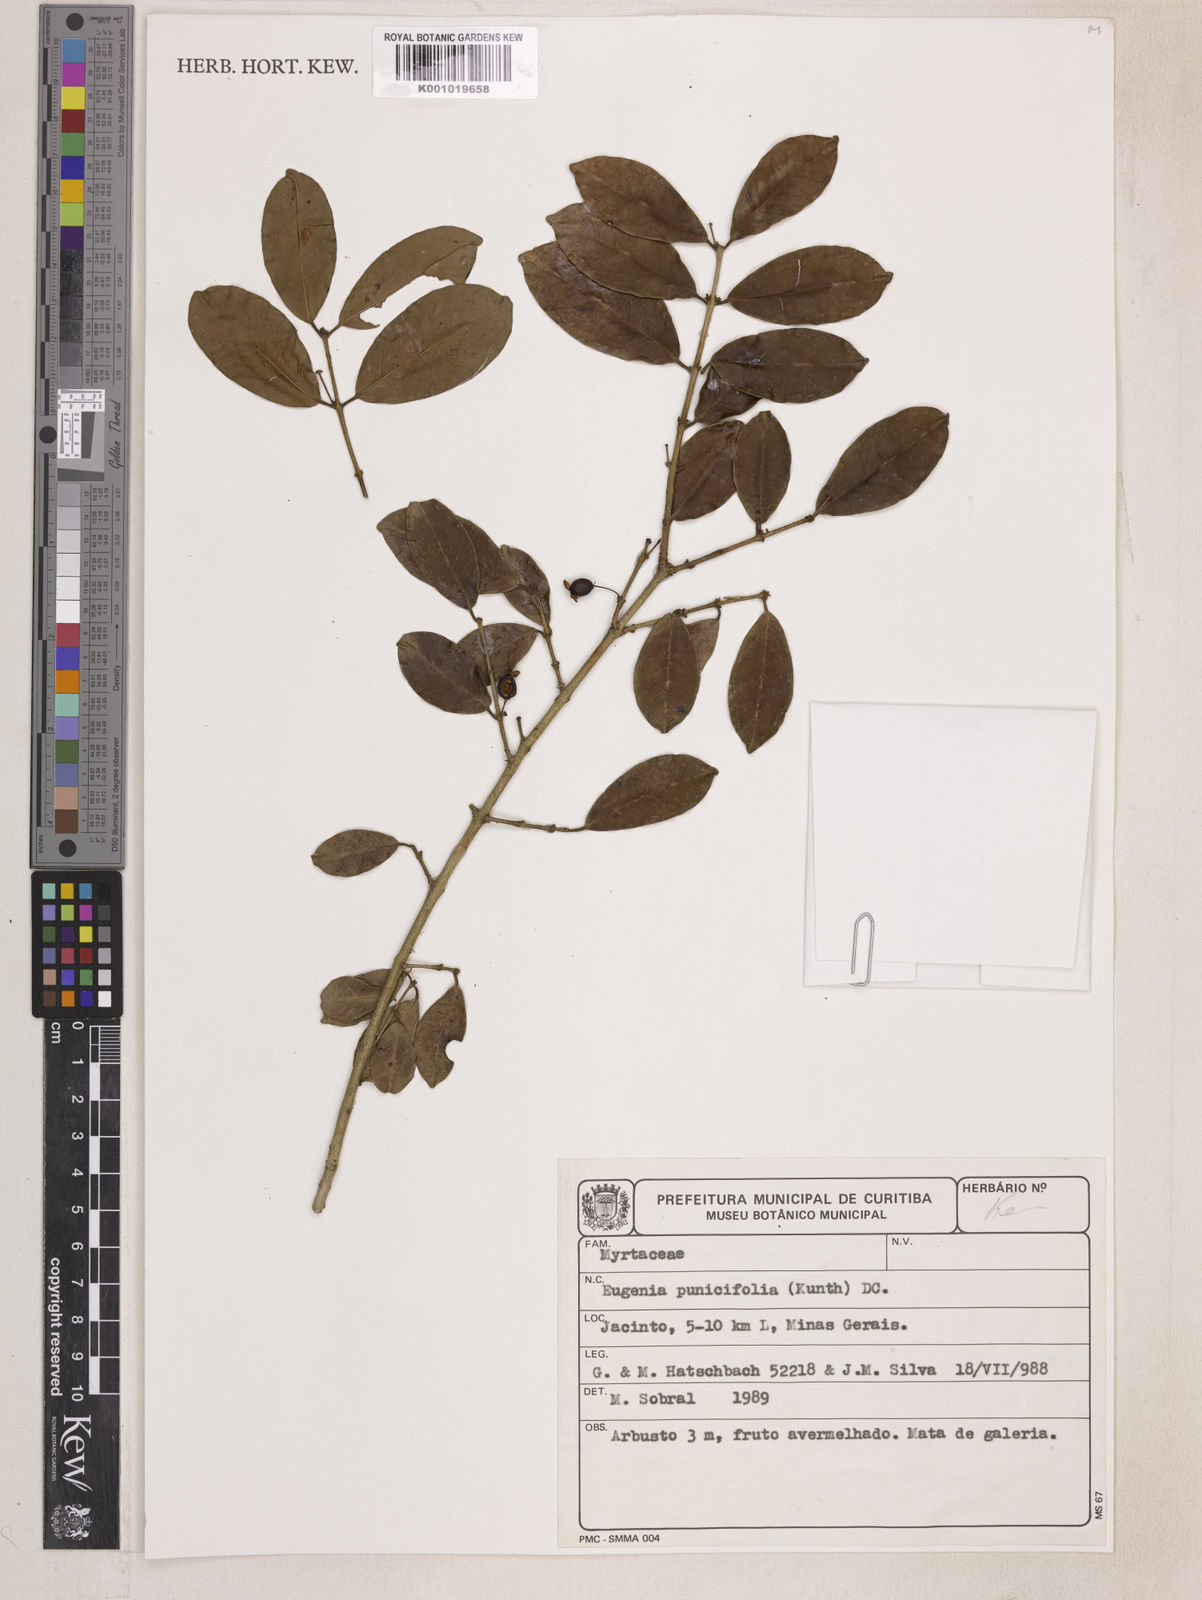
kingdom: Plantae
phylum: Tracheophyta
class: Magnoliopsida
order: Myrtales
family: Myrtaceae
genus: Eugenia
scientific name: Eugenia punicifolia
